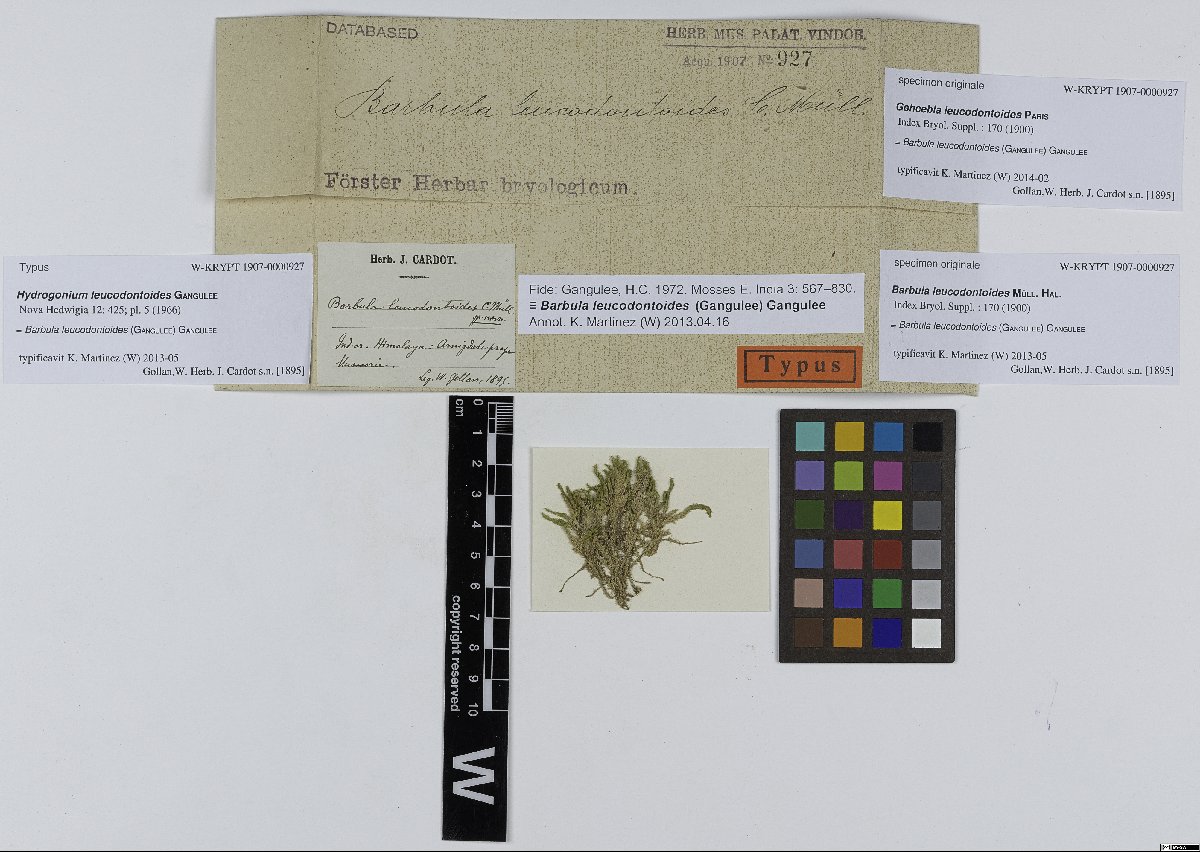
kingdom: Plantae
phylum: Bryophyta
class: Bryopsida
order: Pottiales
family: Pottiaceae
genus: Hydrogonium
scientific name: Hydrogonium leucodontoides
